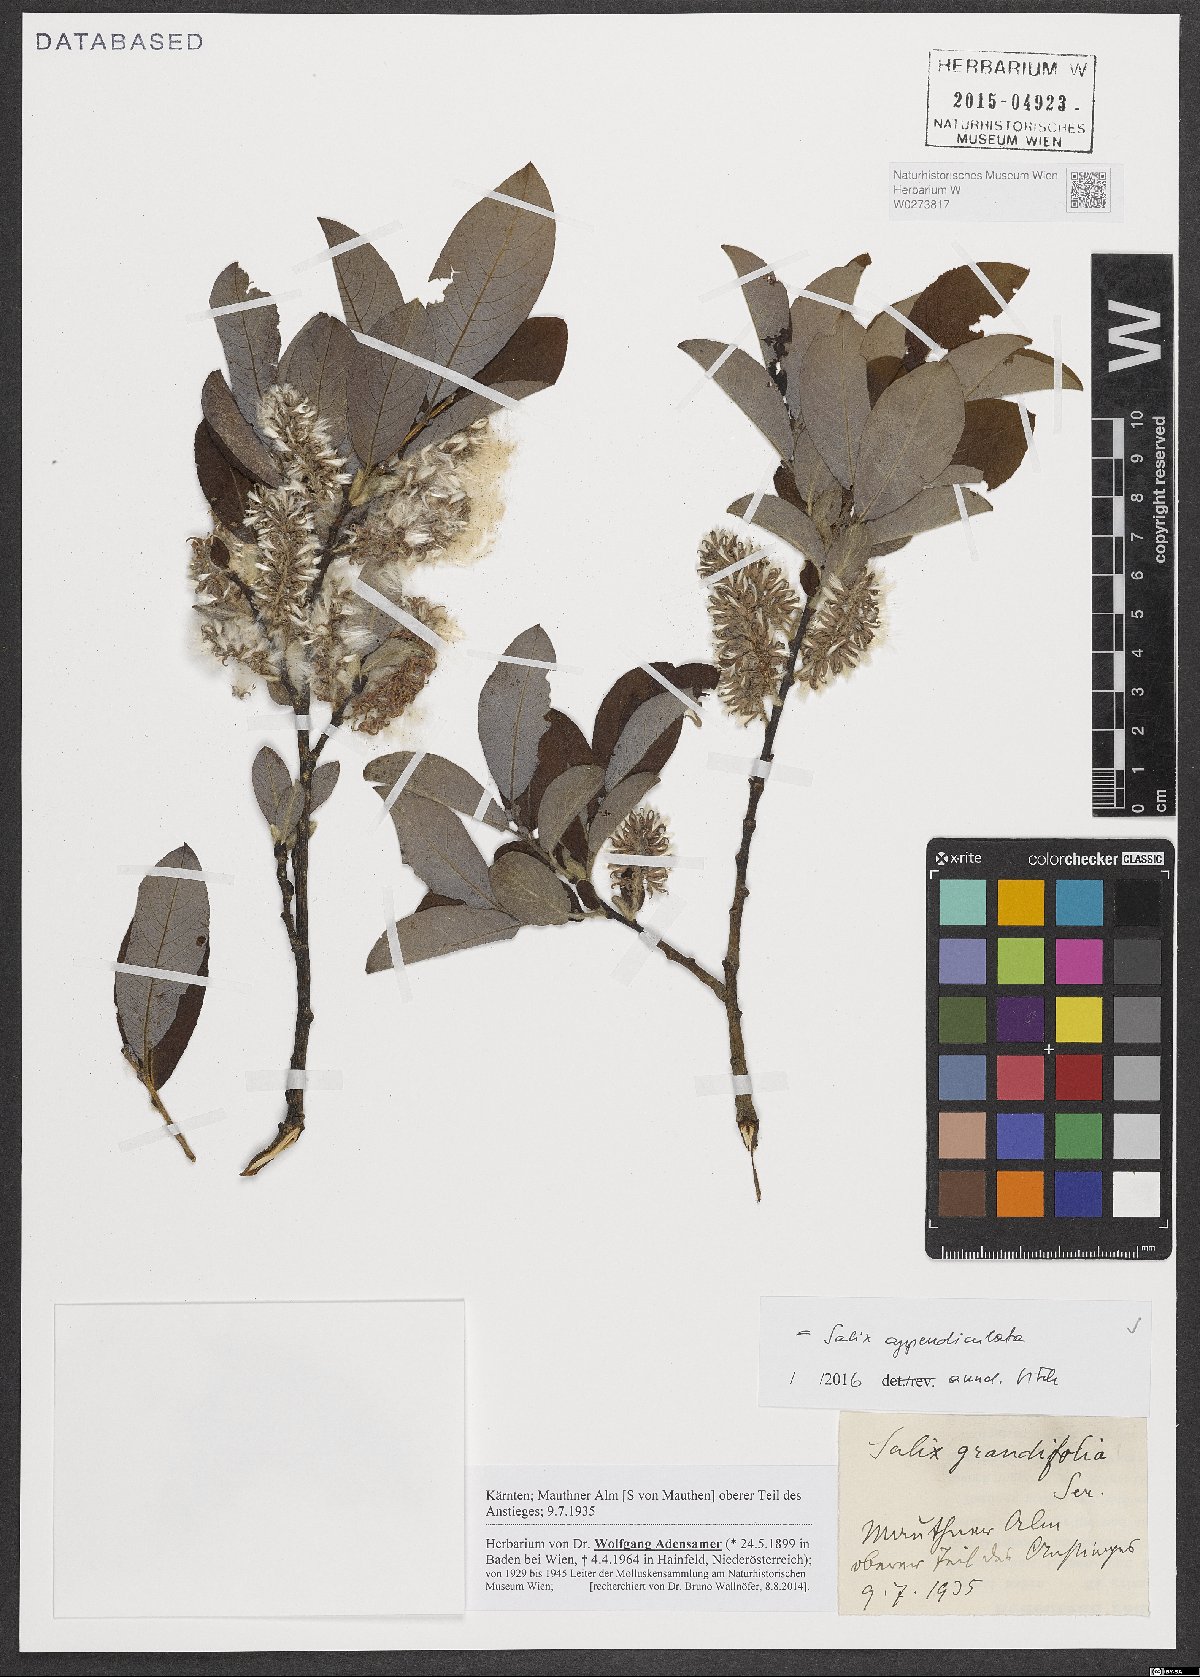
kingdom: Plantae
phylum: Tracheophyta
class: Magnoliopsida
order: Malpighiales
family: Salicaceae
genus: Salix
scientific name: Salix appendiculata
